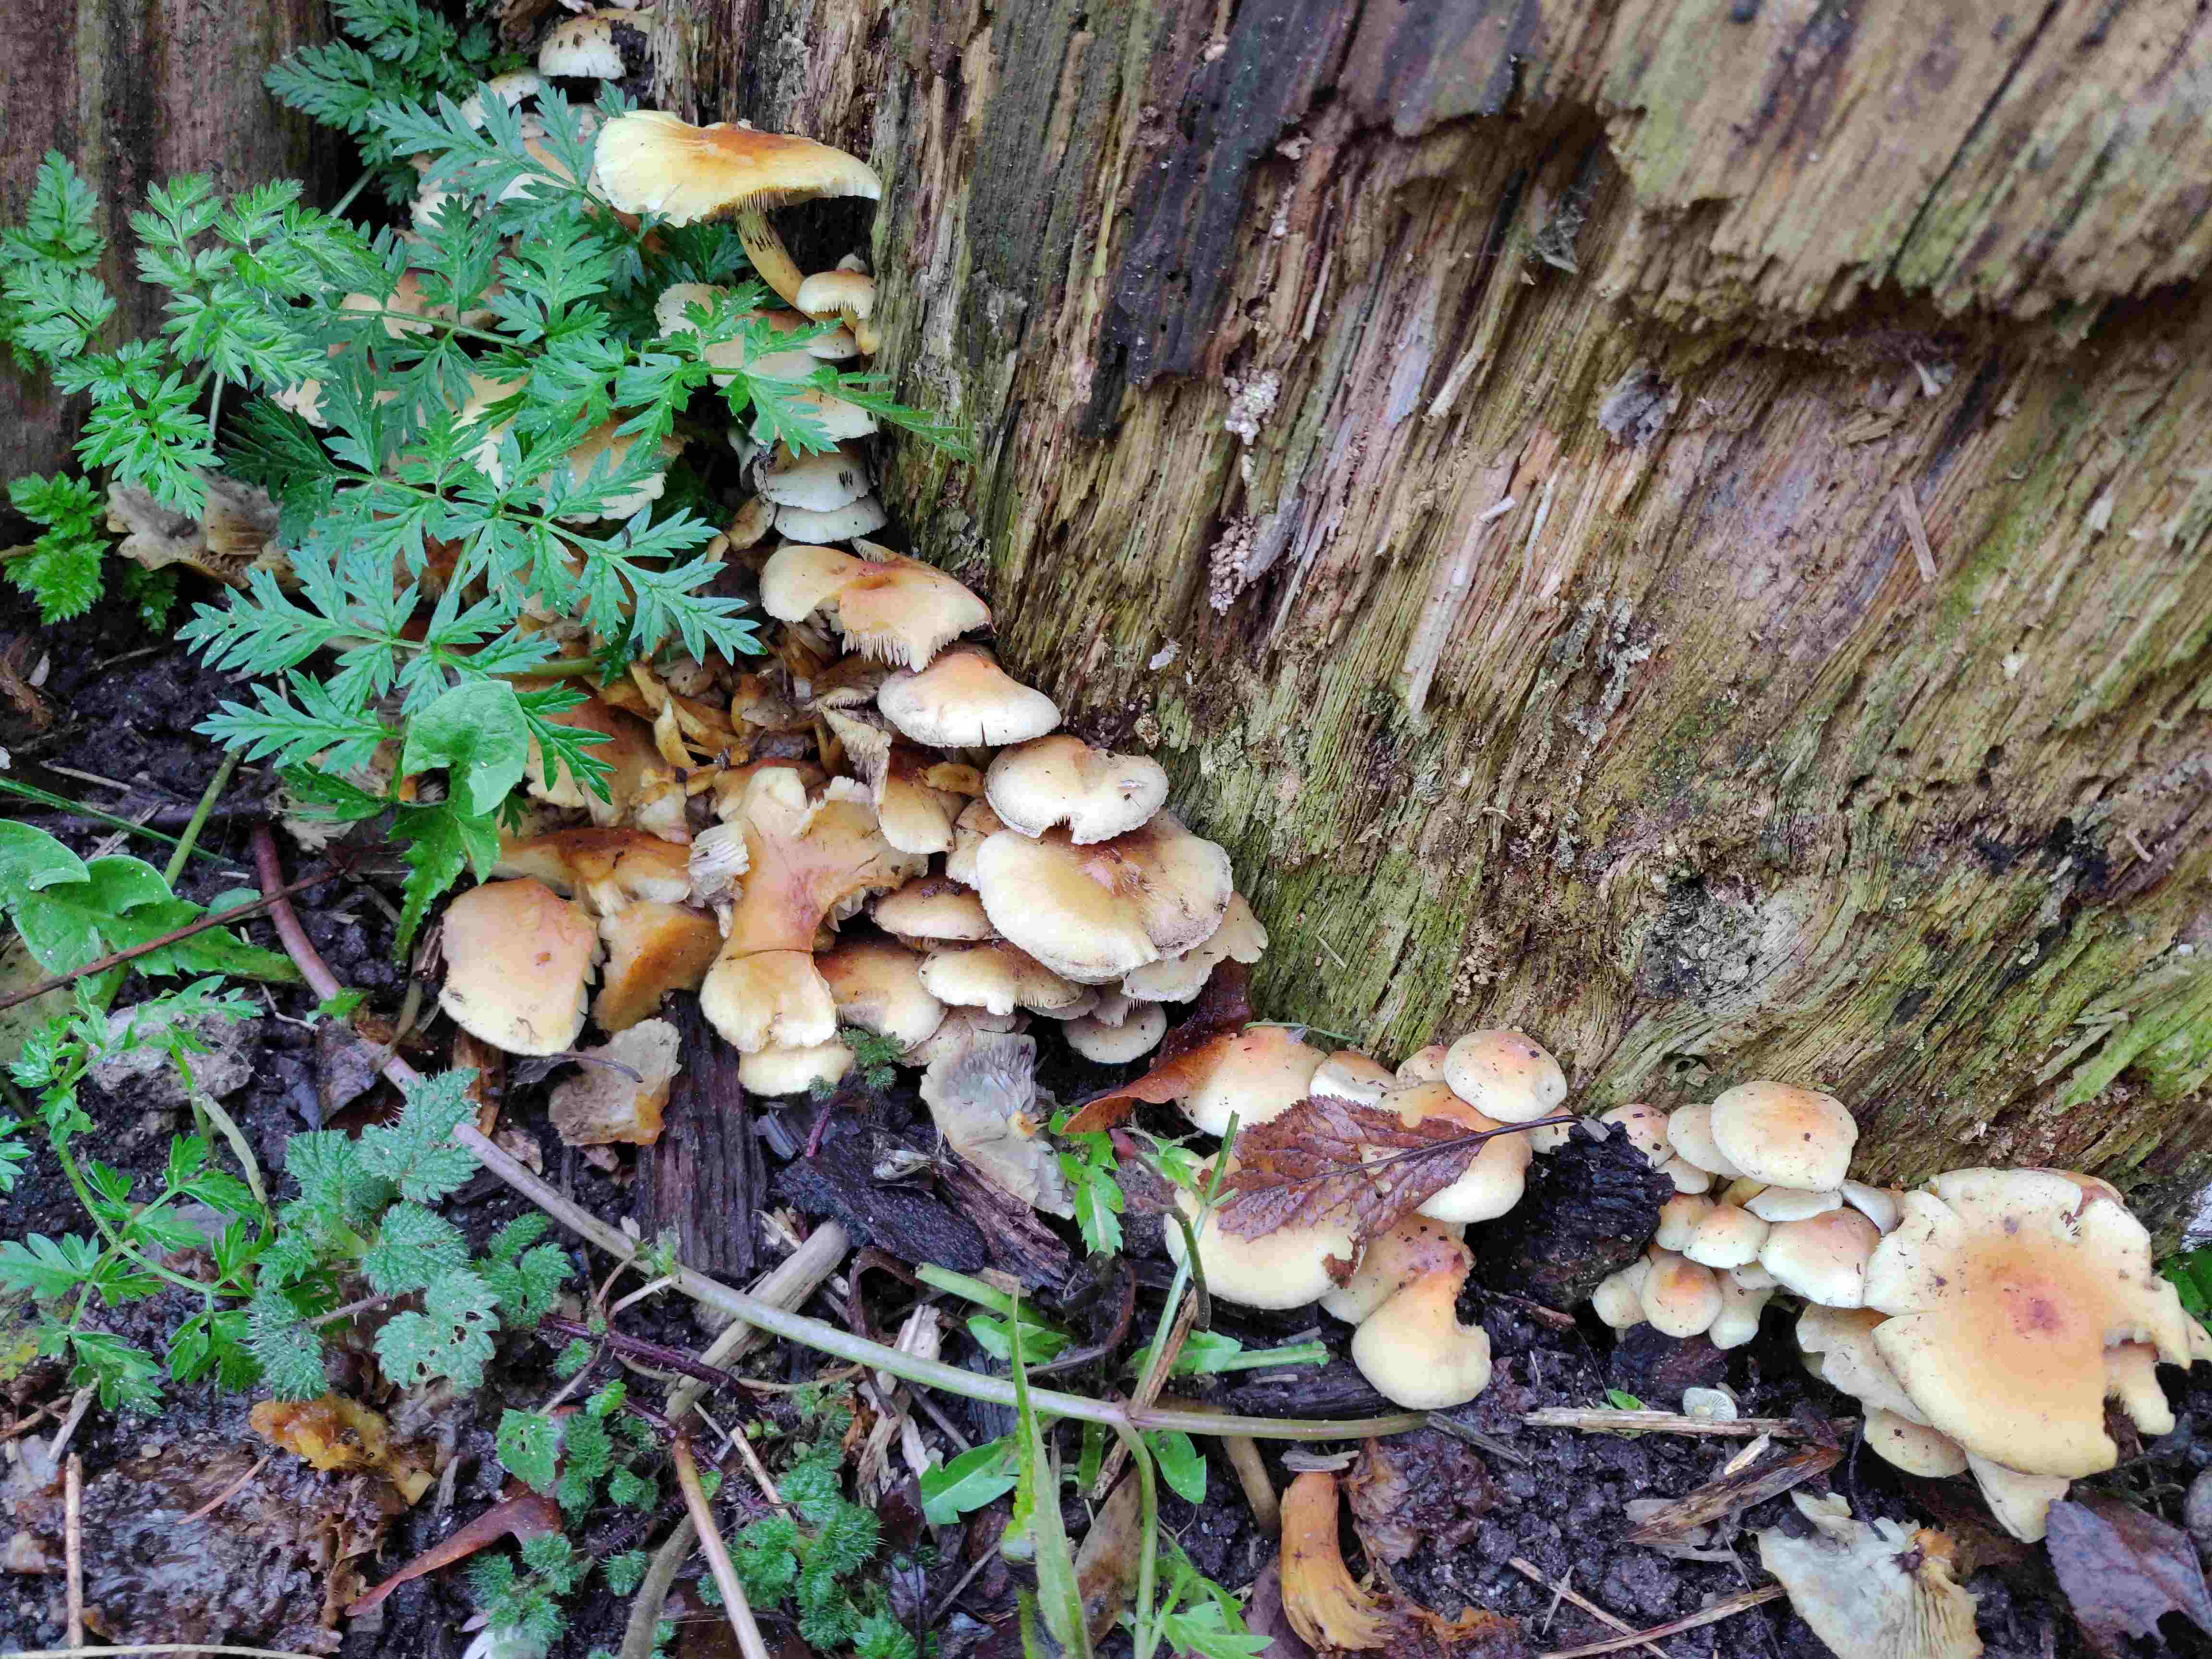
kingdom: Fungi
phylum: Basidiomycota
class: Agaricomycetes
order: Agaricales
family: Strophariaceae
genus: Hypholoma
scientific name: Hypholoma fasciculare
